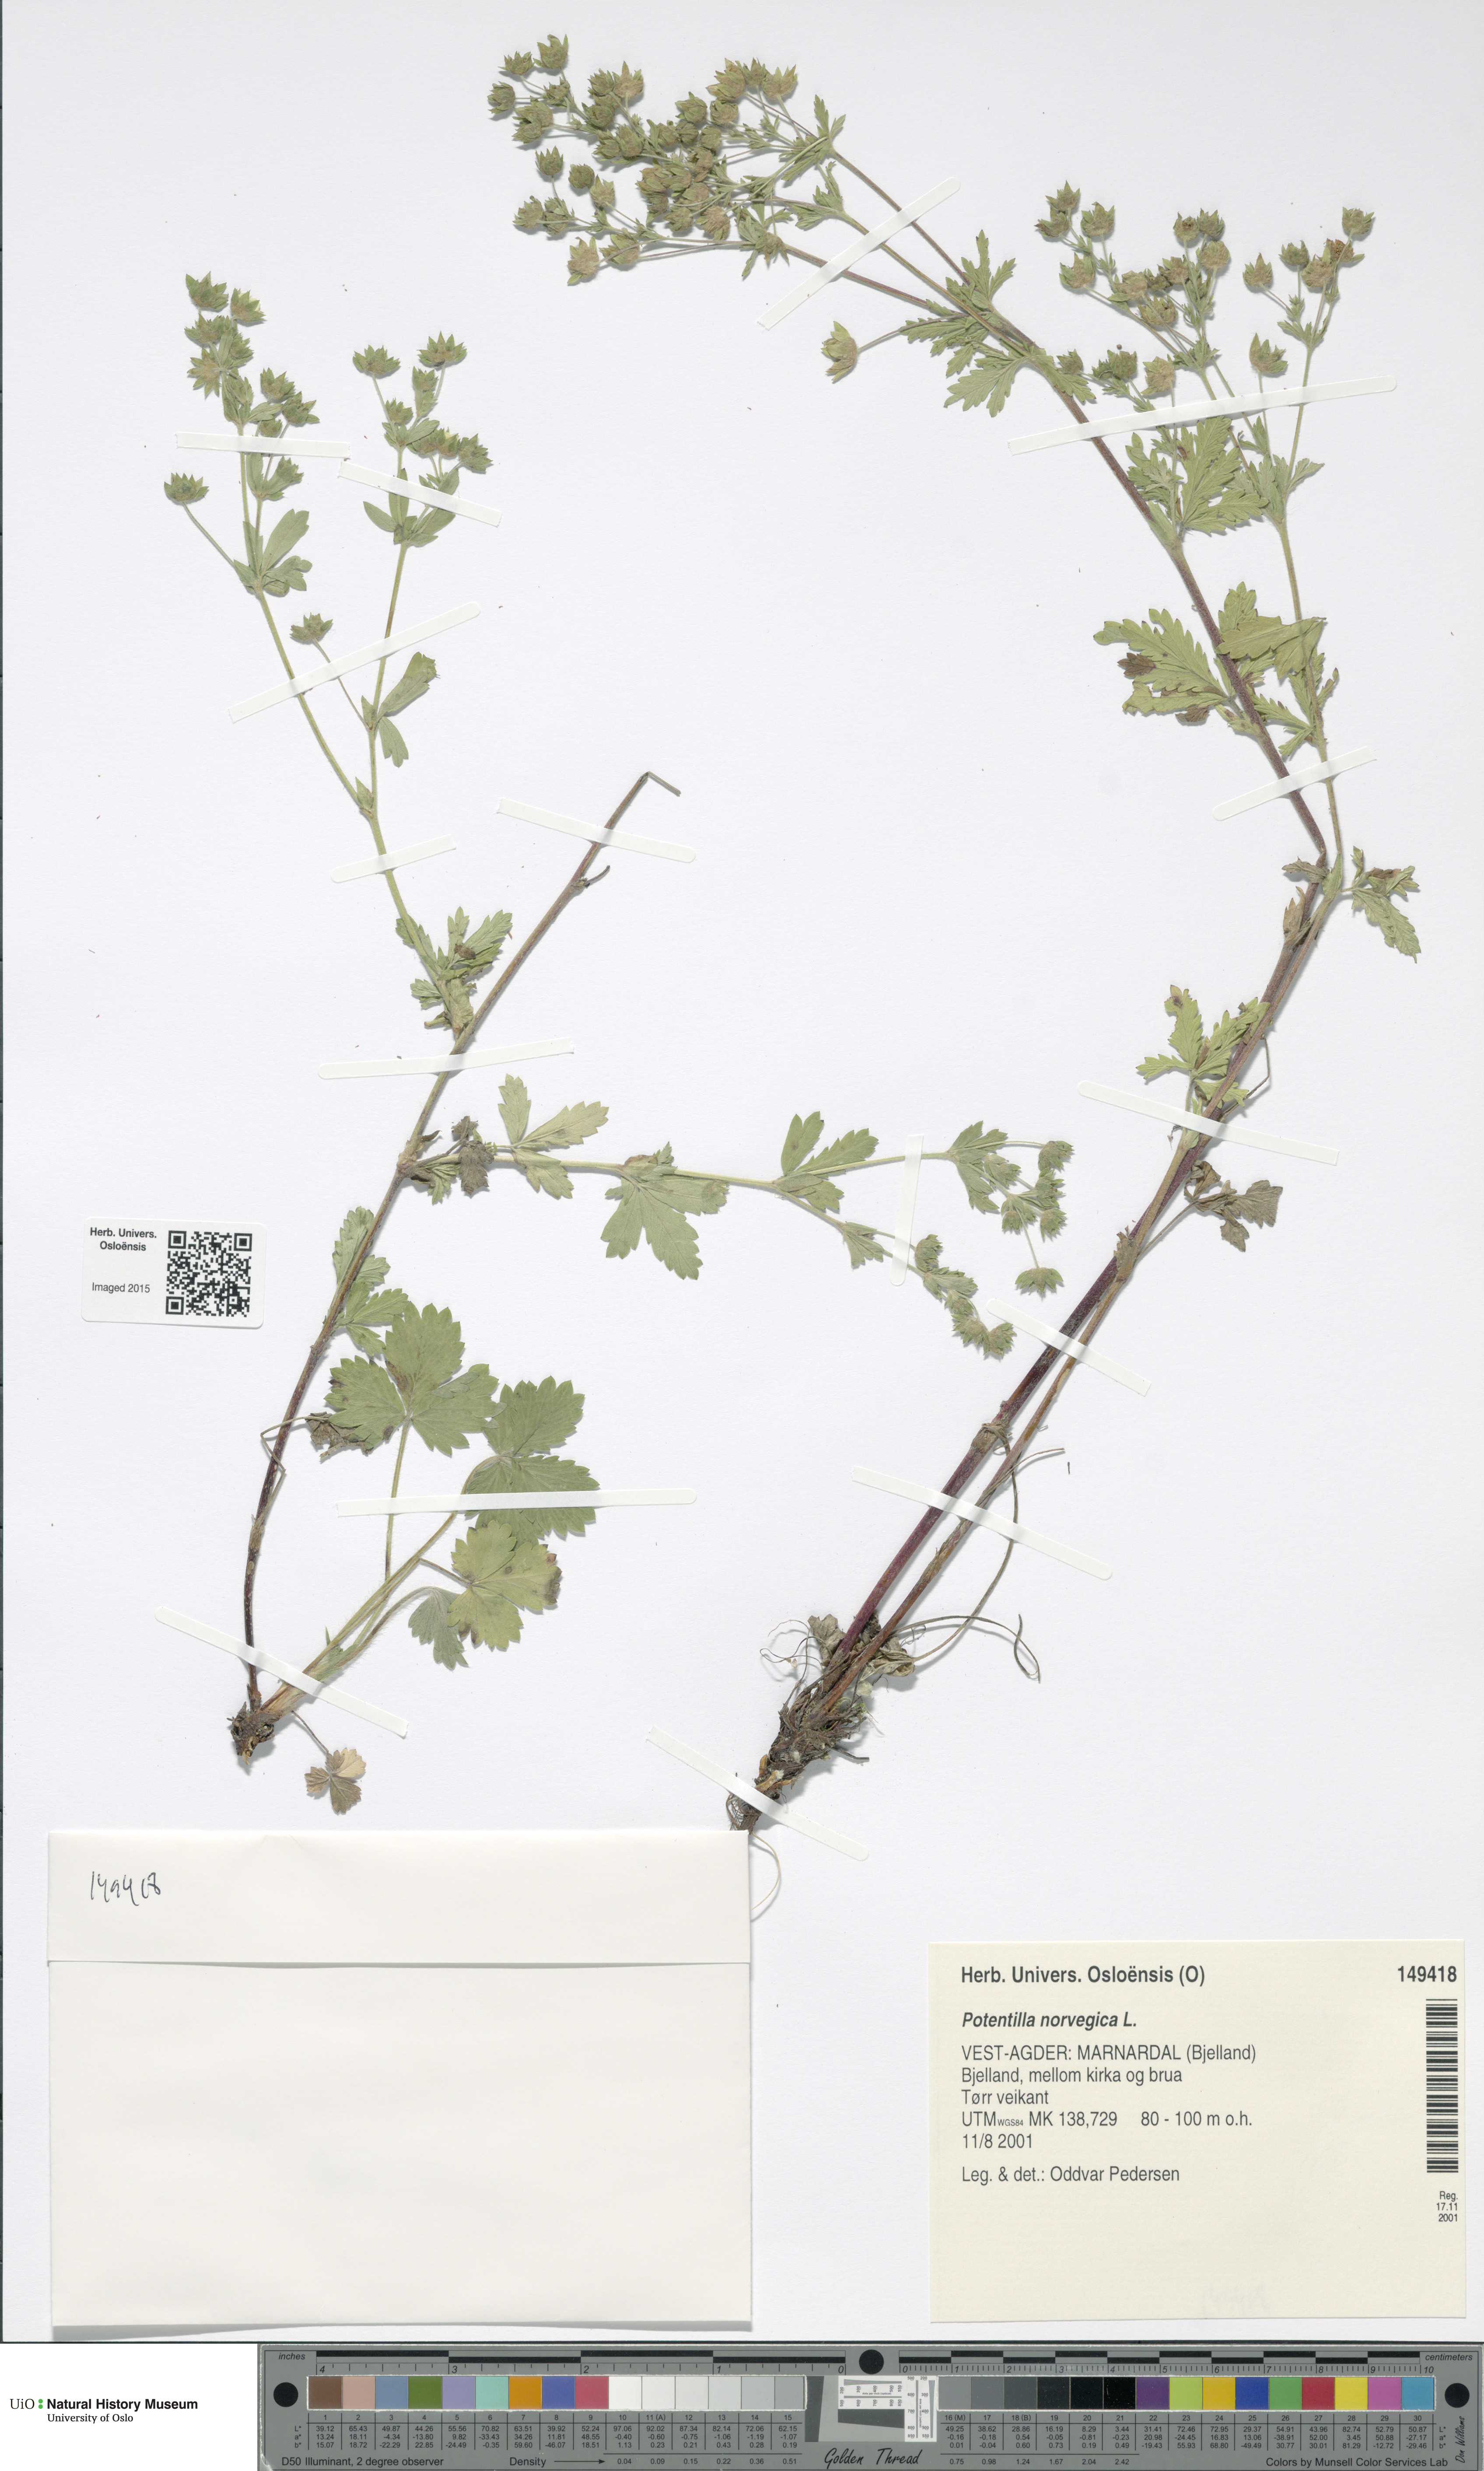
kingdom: Plantae
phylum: Tracheophyta
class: Magnoliopsida
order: Rosales
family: Rosaceae
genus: Potentilla
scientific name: Potentilla norvegica
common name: Ternate-leaved cinquefoil
